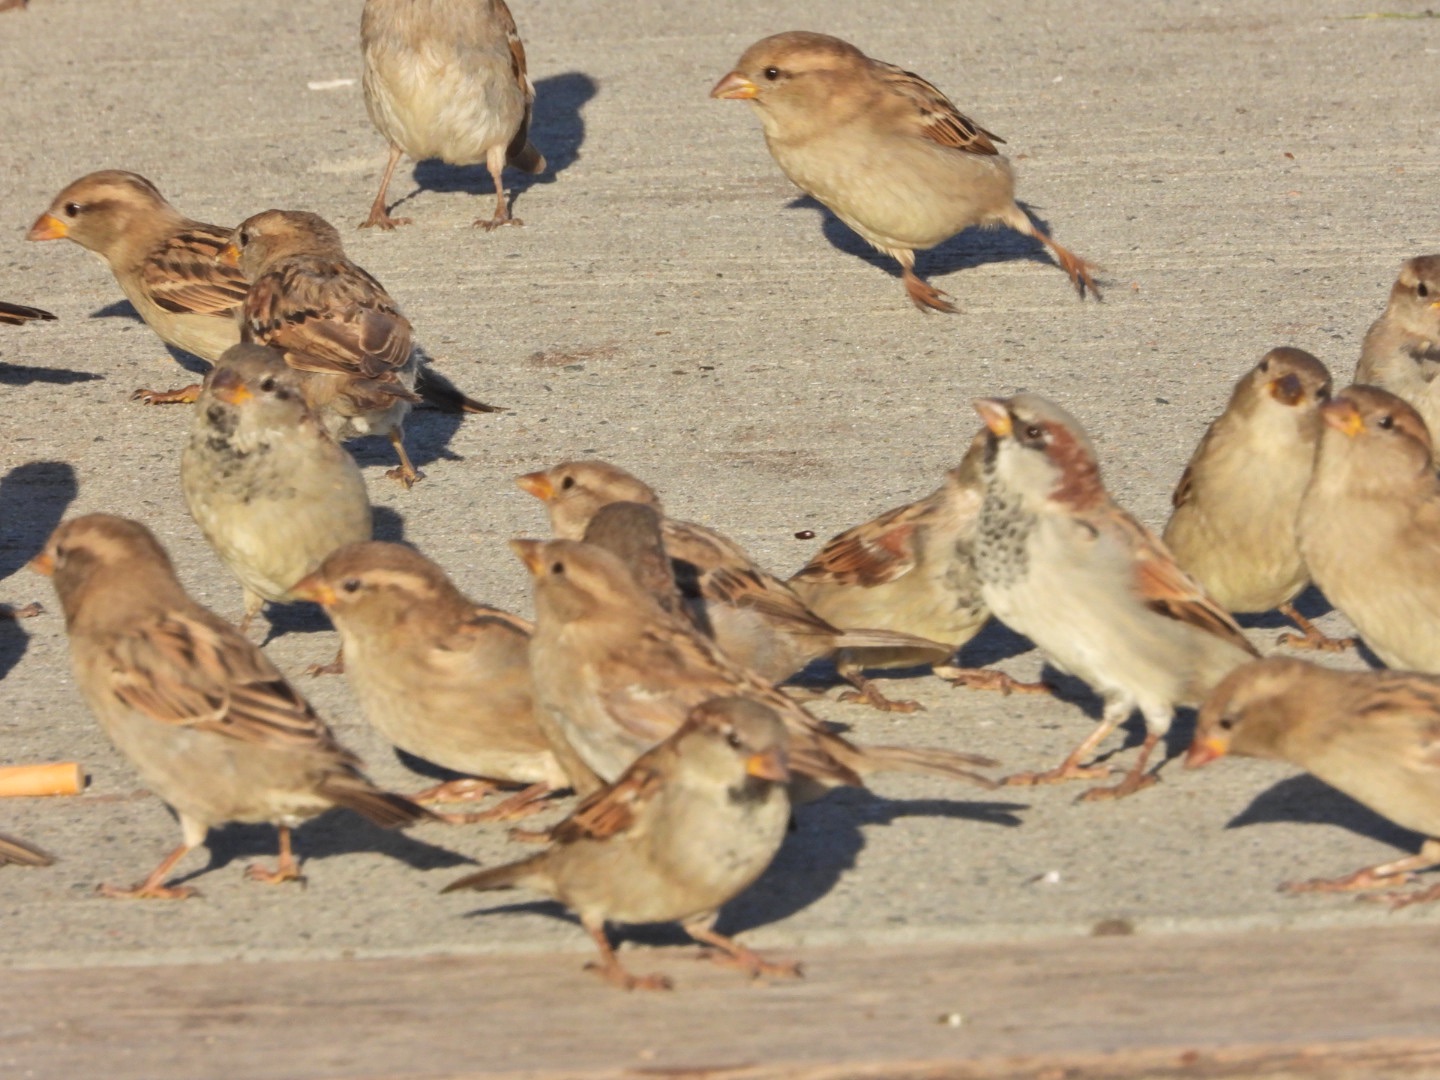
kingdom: Animalia
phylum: Chordata
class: Aves
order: Passeriformes
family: Passeridae
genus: Passer
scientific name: Passer domesticus
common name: Gråspurv
